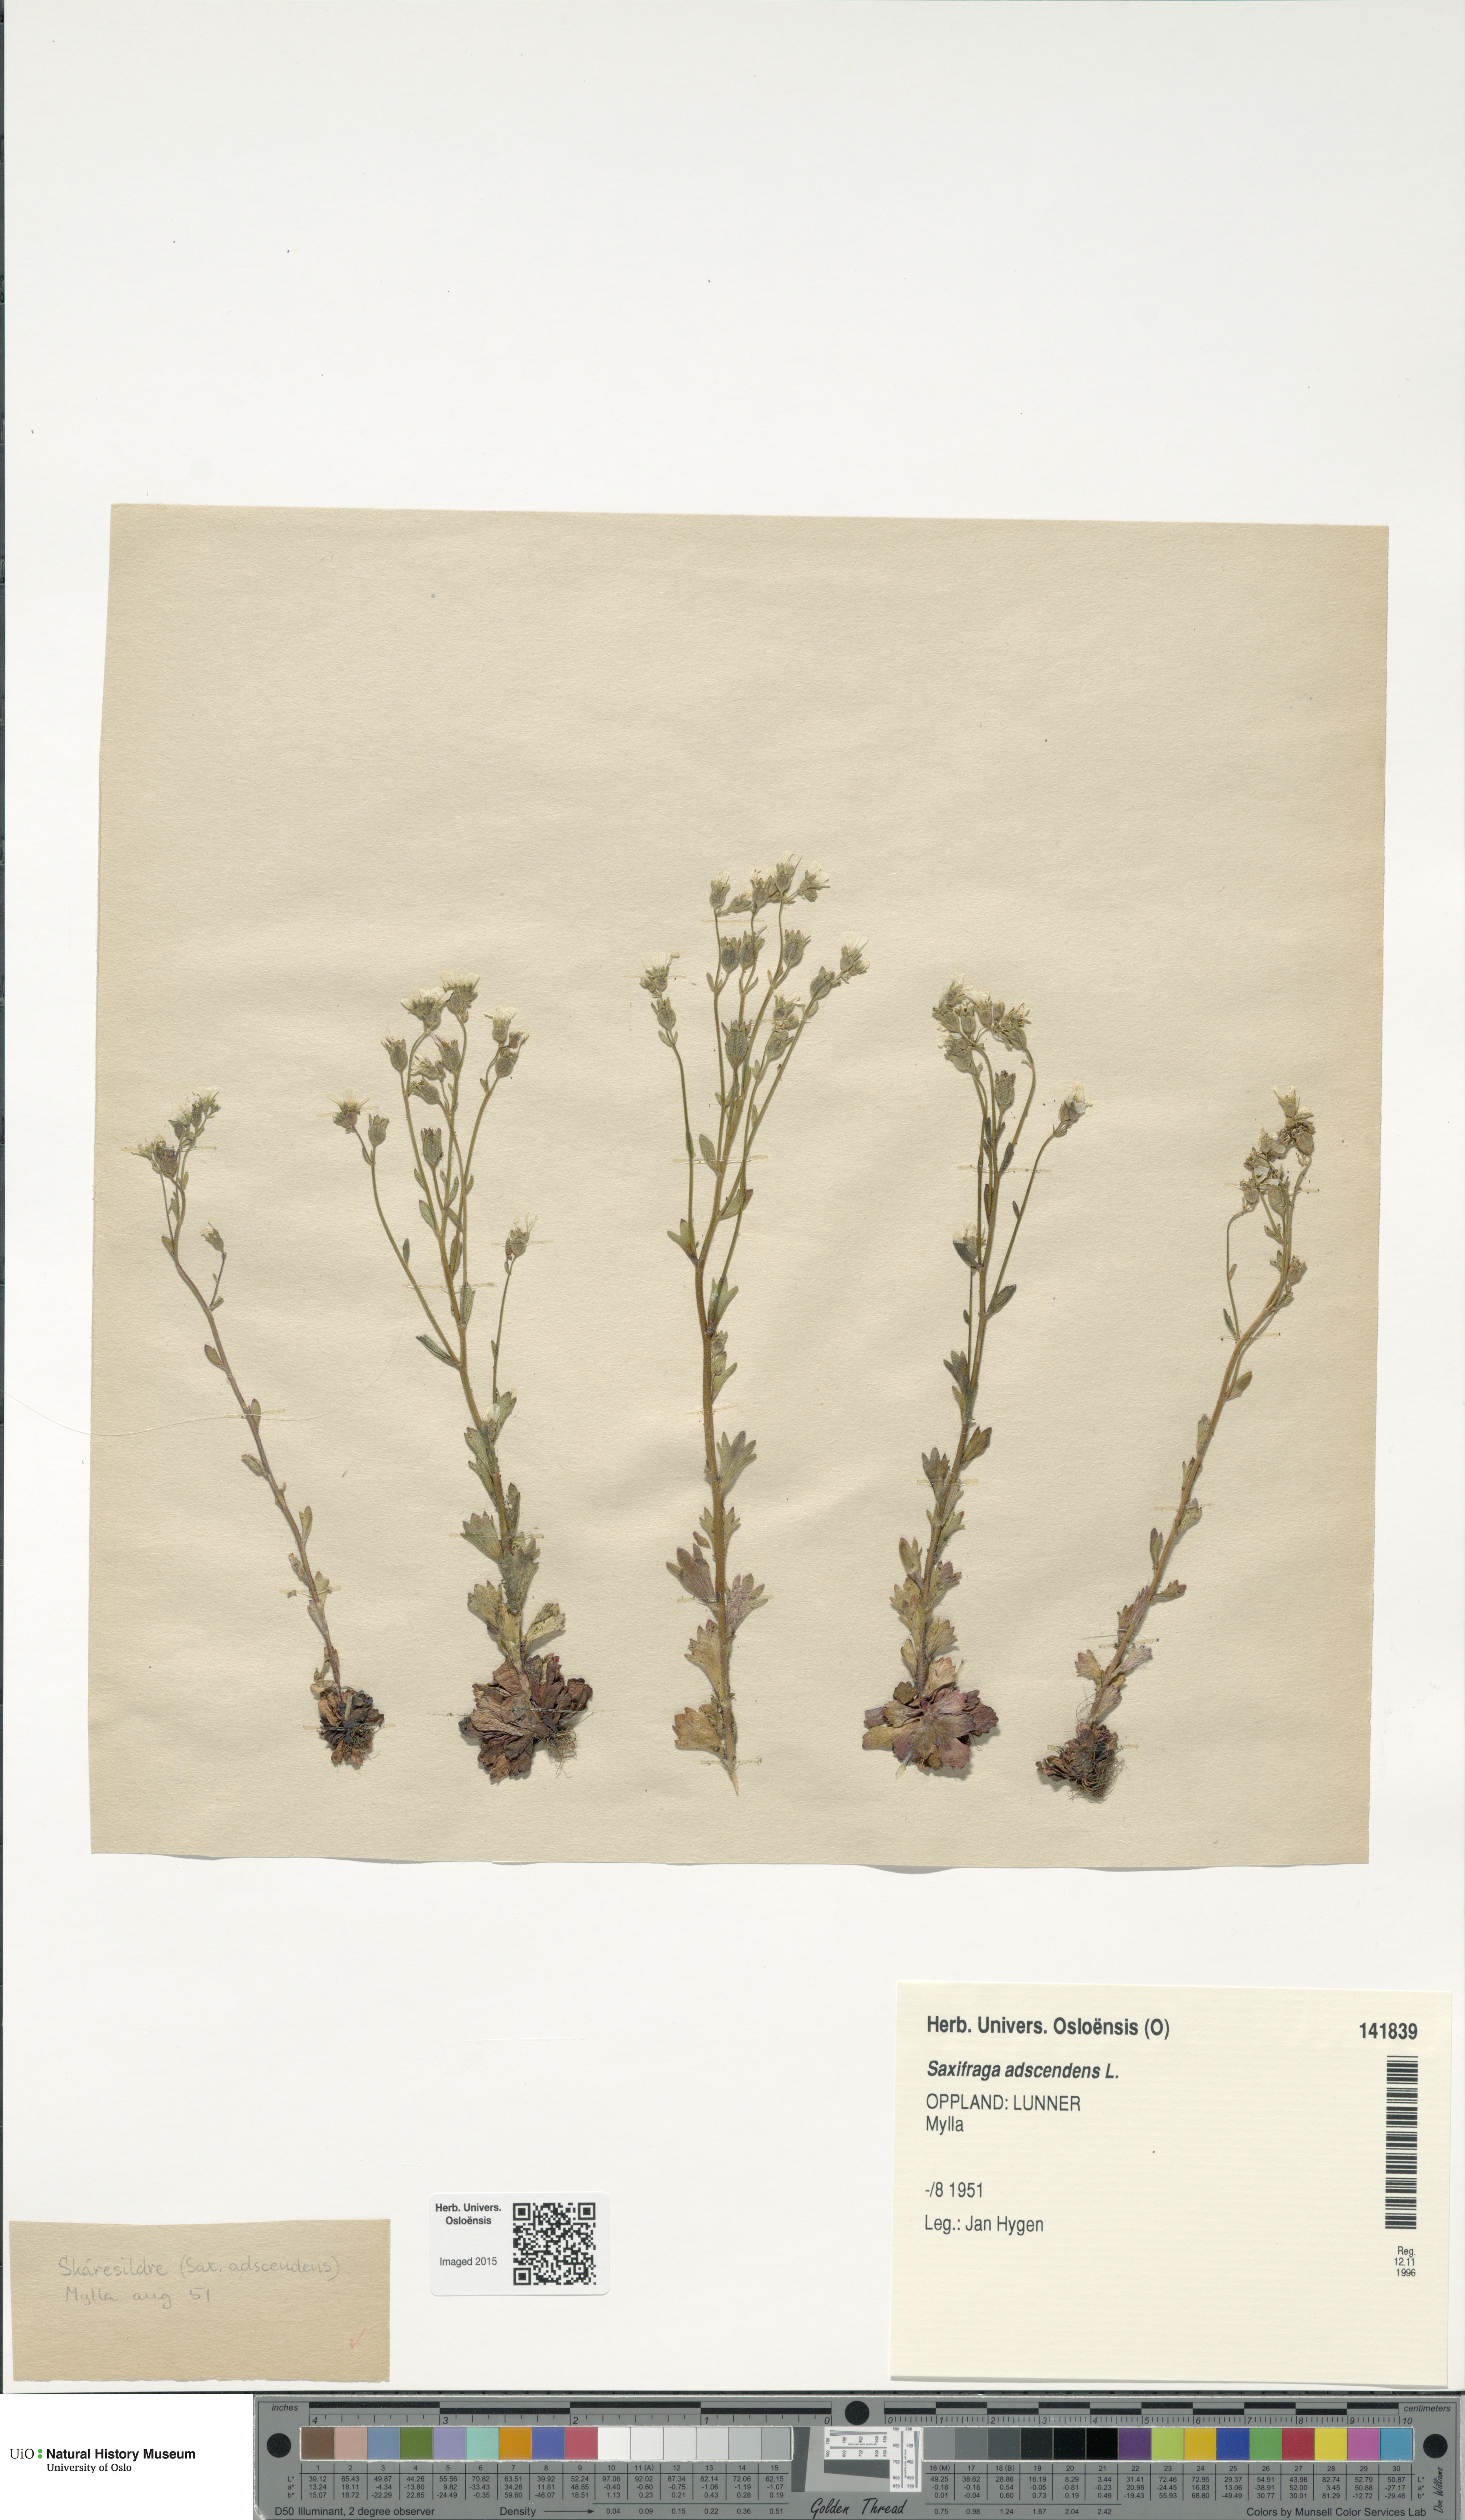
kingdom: Plantae
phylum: Tracheophyta
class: Magnoliopsida
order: Saxifragales
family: Saxifragaceae
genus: Saxifraga
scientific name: Saxifraga adscendens
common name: Ascending saxifrage
